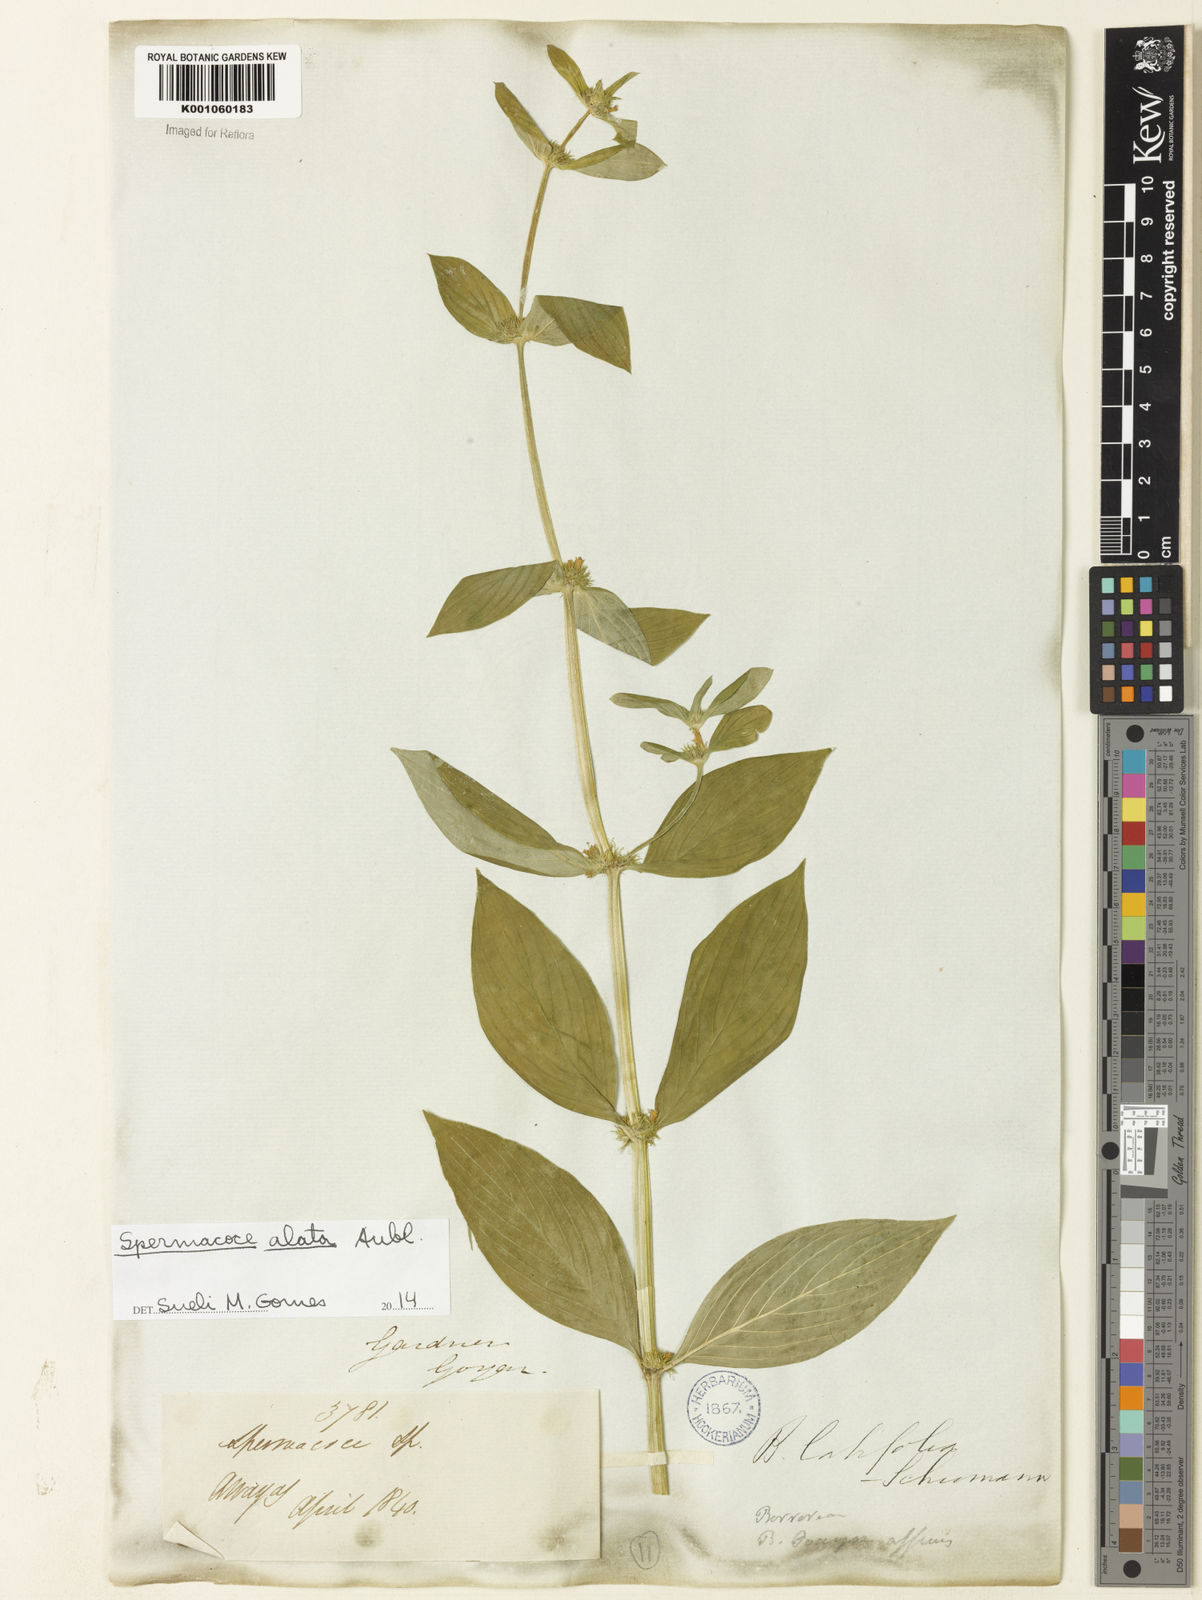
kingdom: Plantae
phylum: Tracheophyta
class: Magnoliopsida
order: Gentianales
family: Rubiaceae
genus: Spermacoce
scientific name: Spermacoce
